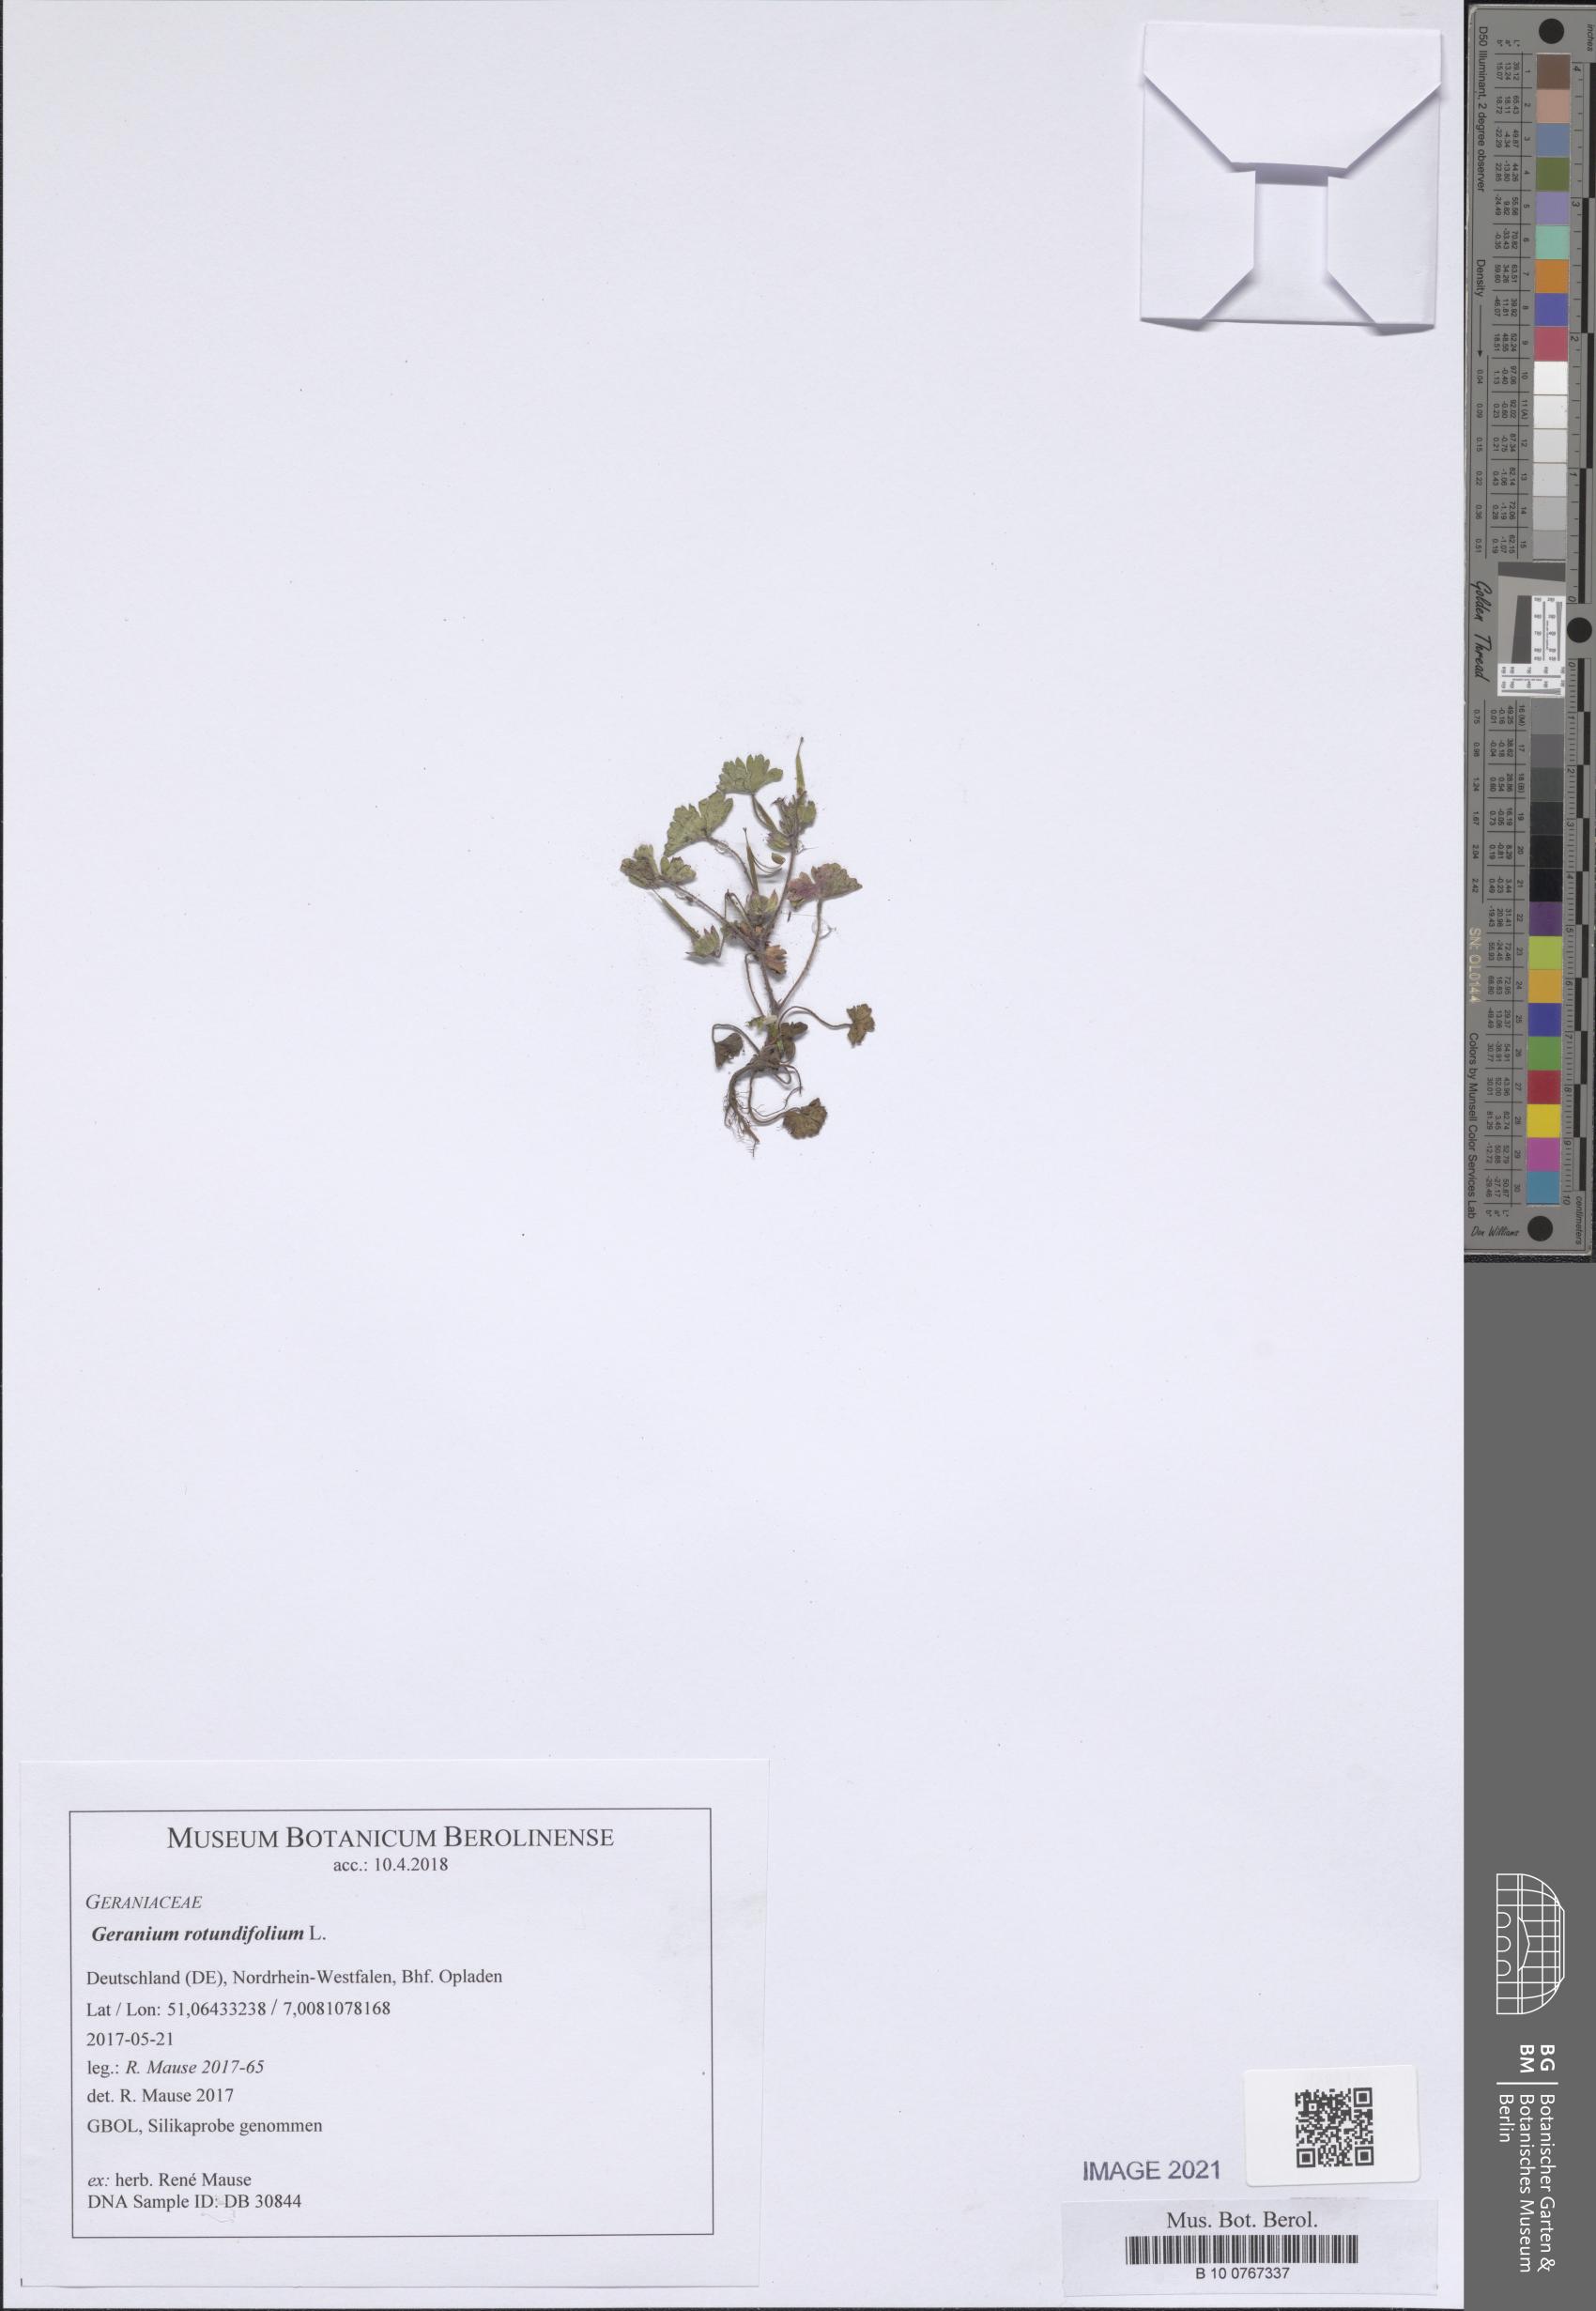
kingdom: Plantae
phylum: Tracheophyta
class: Magnoliopsida
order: Geraniales
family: Geraniaceae
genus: Geranium
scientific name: Geranium rotundifolium
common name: Round-leaved crane's-bill
